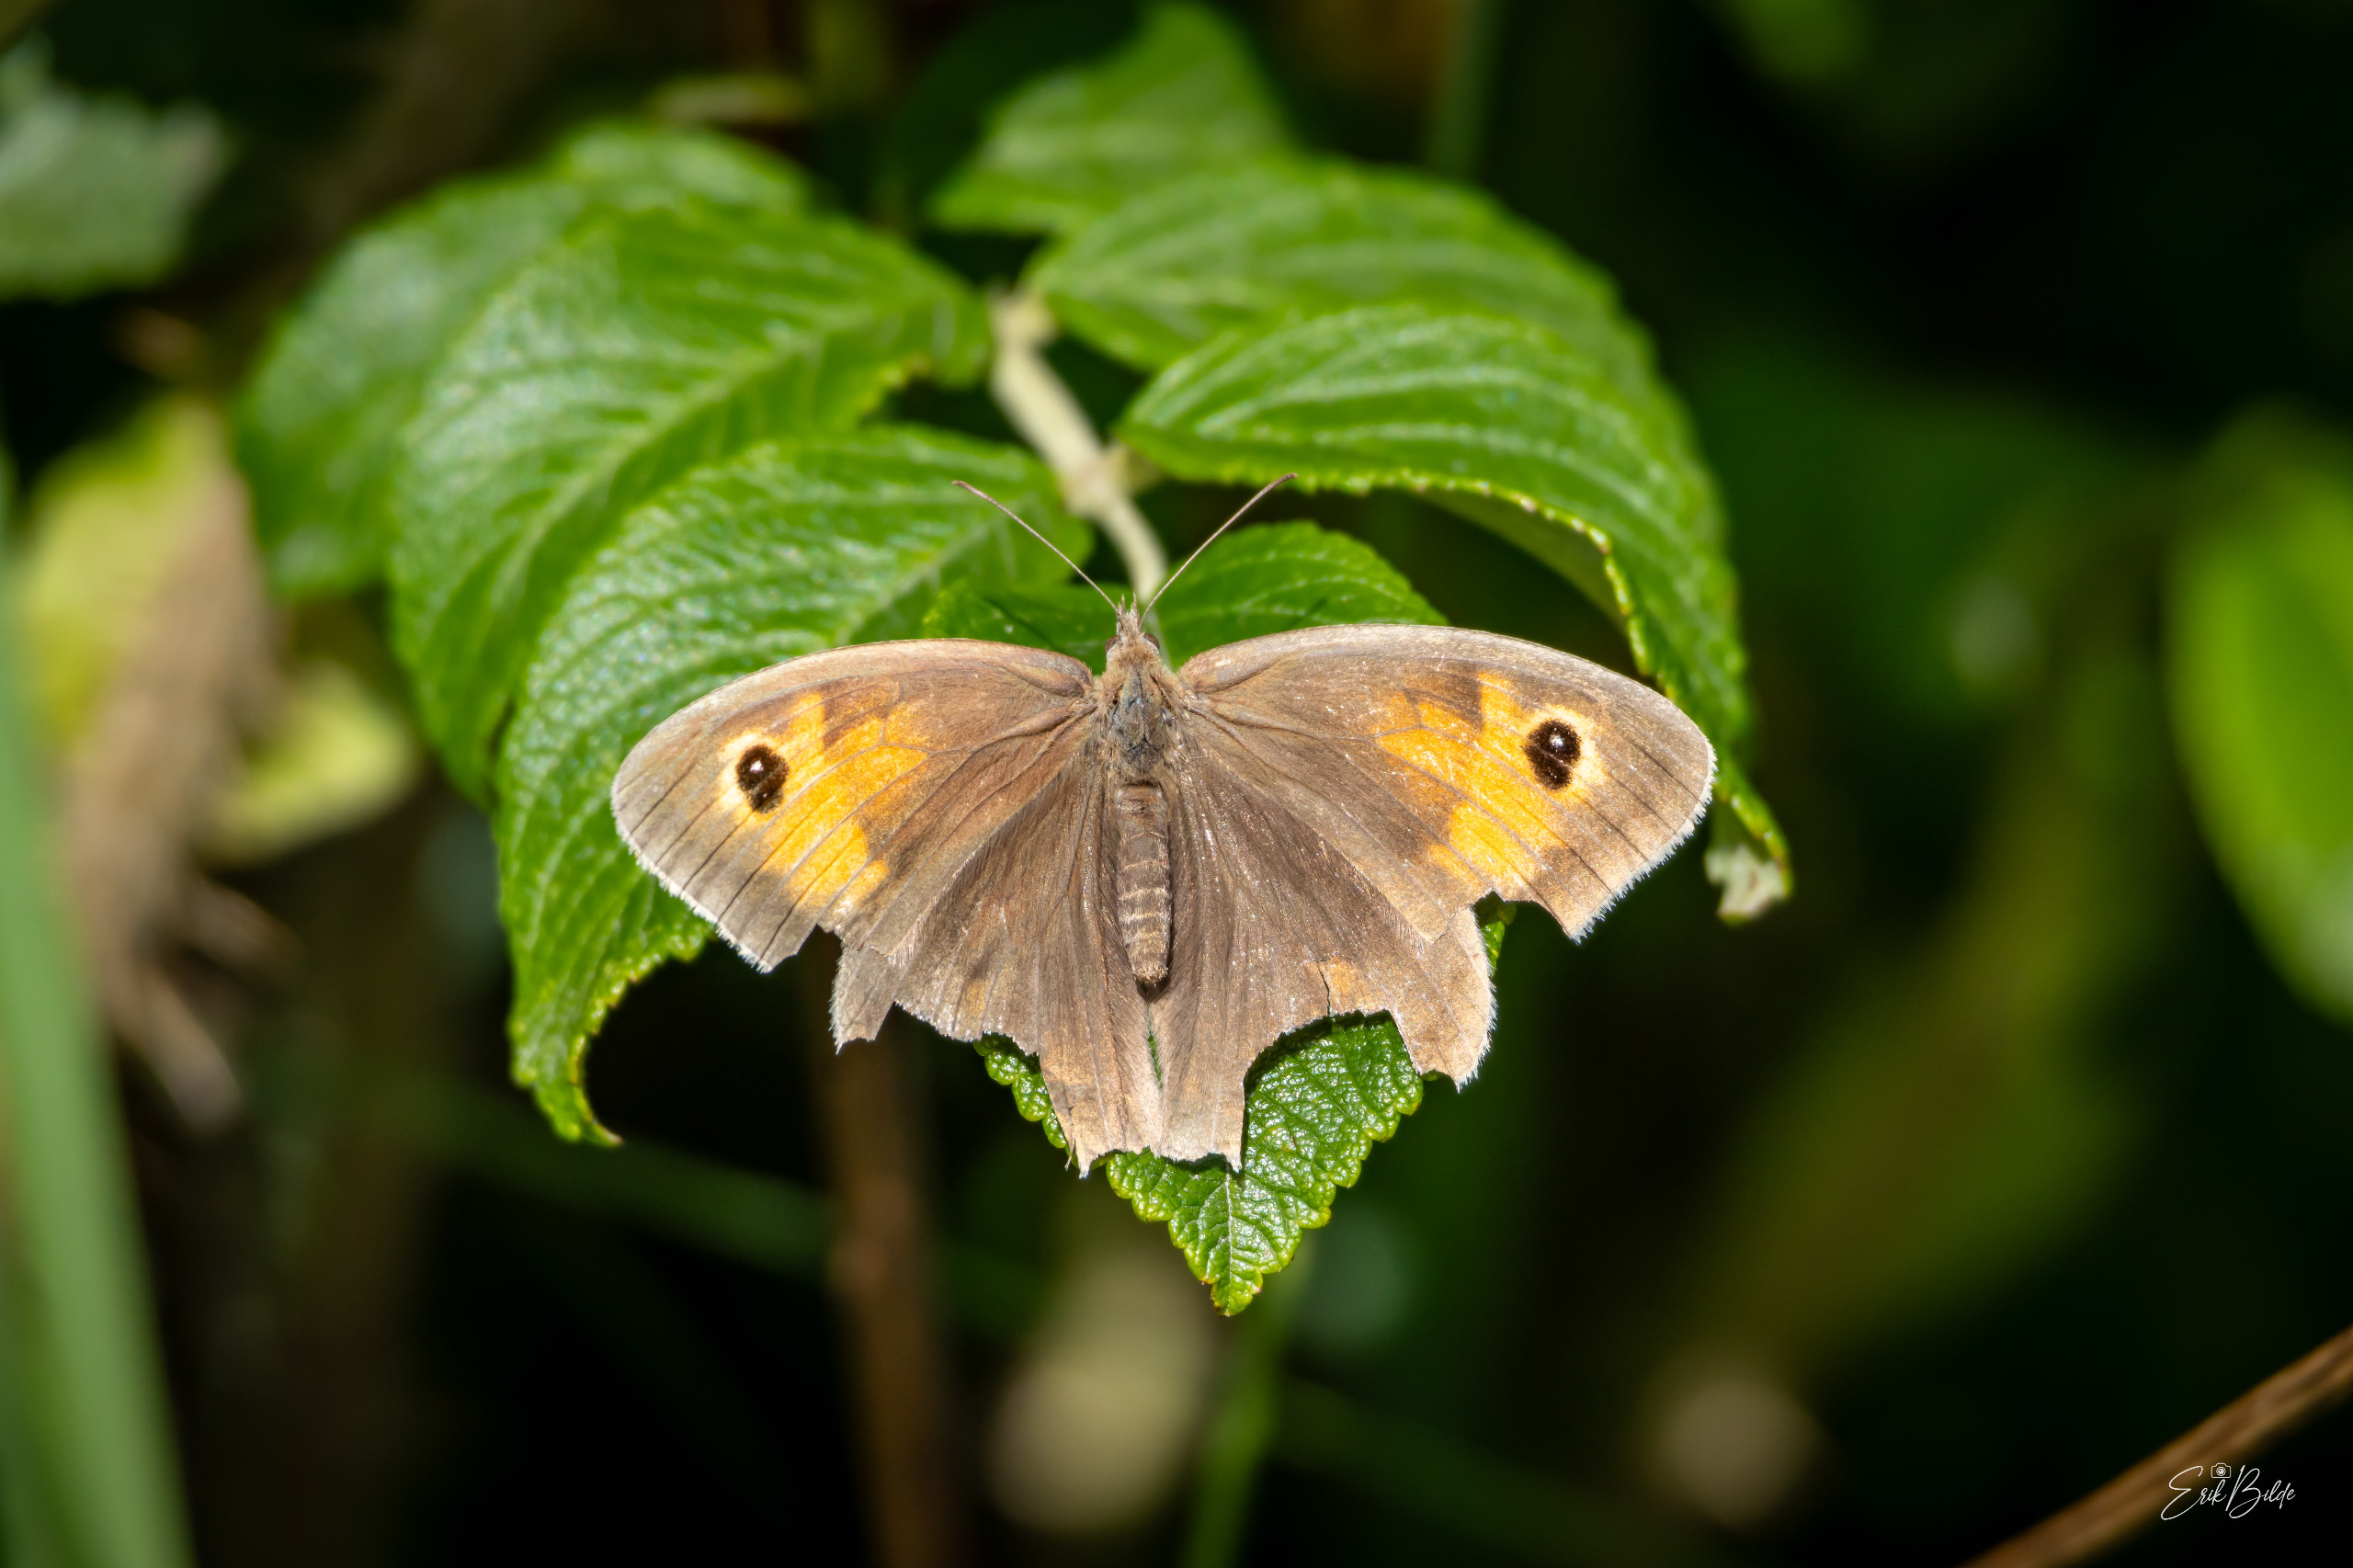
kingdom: Animalia
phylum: Arthropoda
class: Insecta
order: Lepidoptera
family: Nymphalidae
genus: Maniola
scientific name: Maniola jurtina
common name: Græsrandøje
